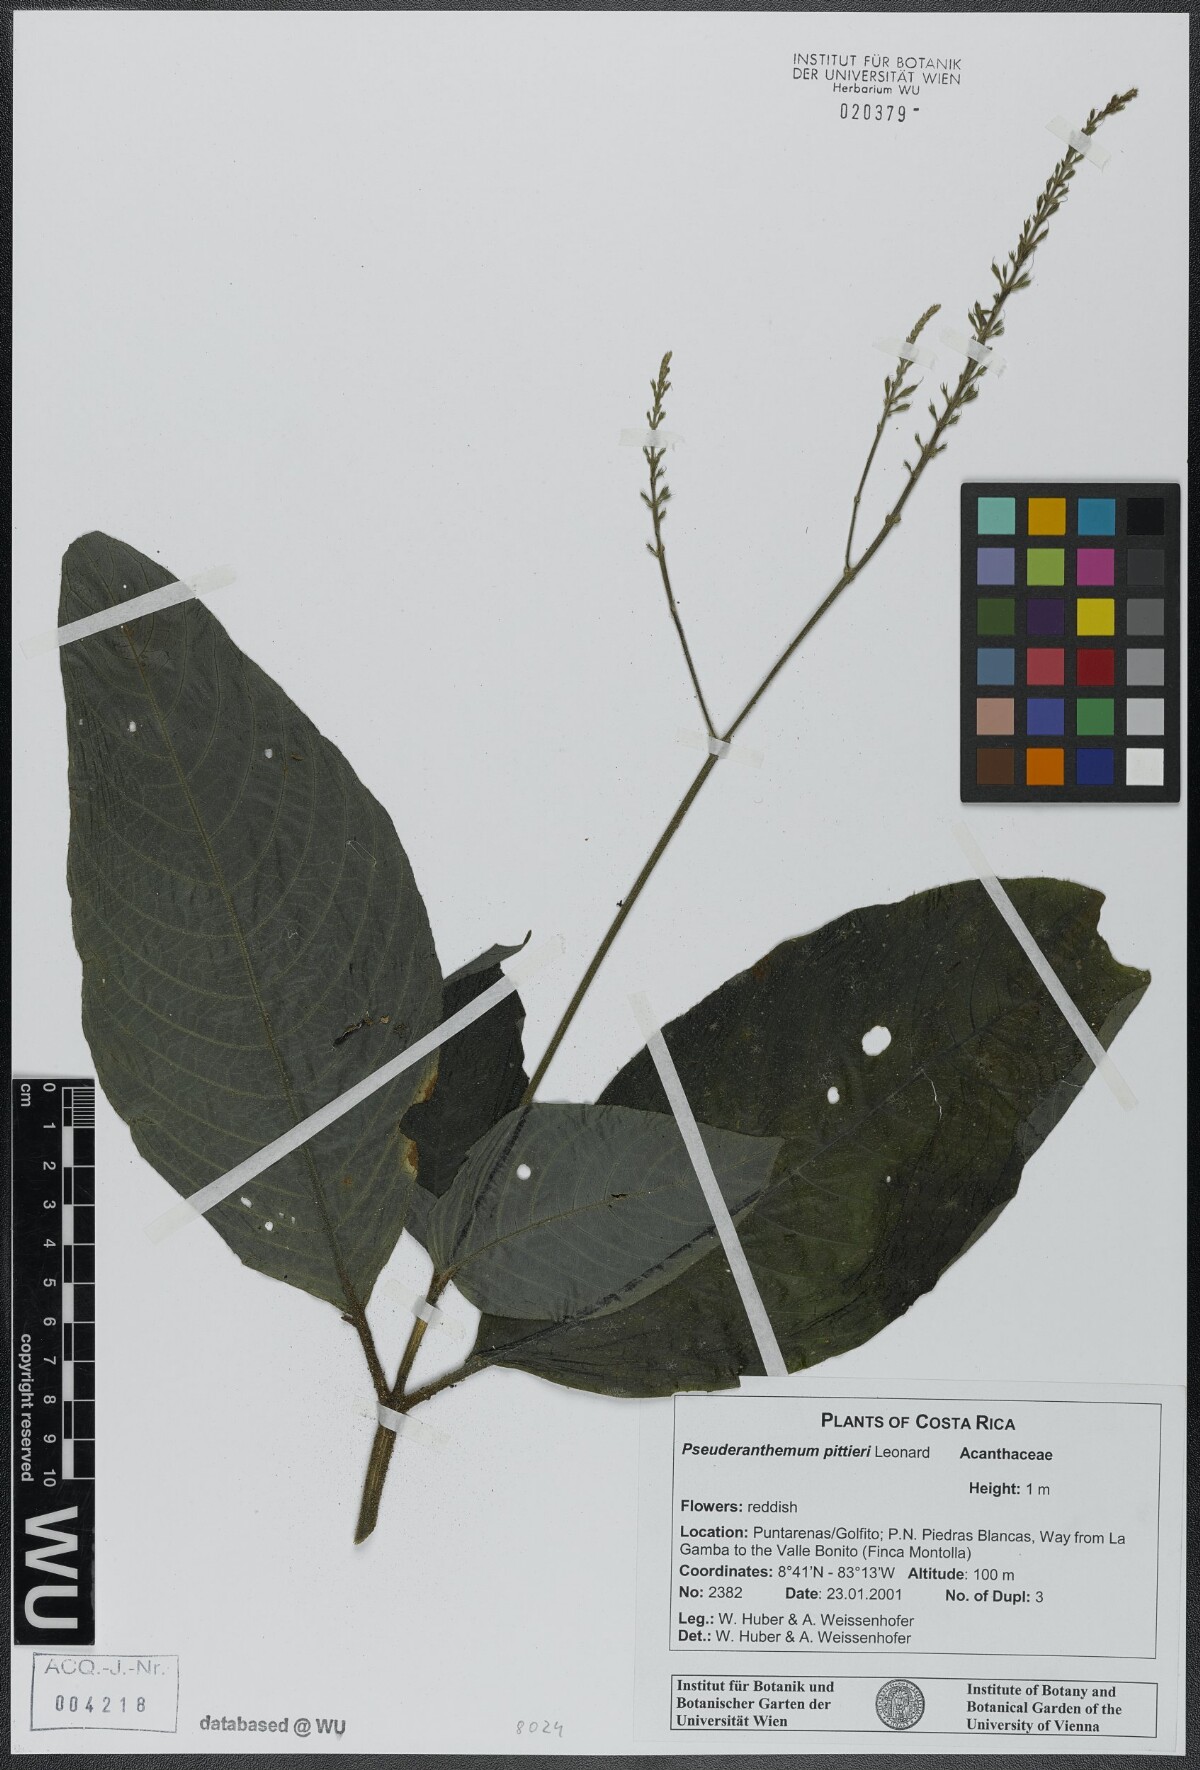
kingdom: Plantae
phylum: Tracheophyta
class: Magnoliopsida
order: Lamiales
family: Acanthaceae
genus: Pseuderanthemum
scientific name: Pseuderanthemum pittieri
